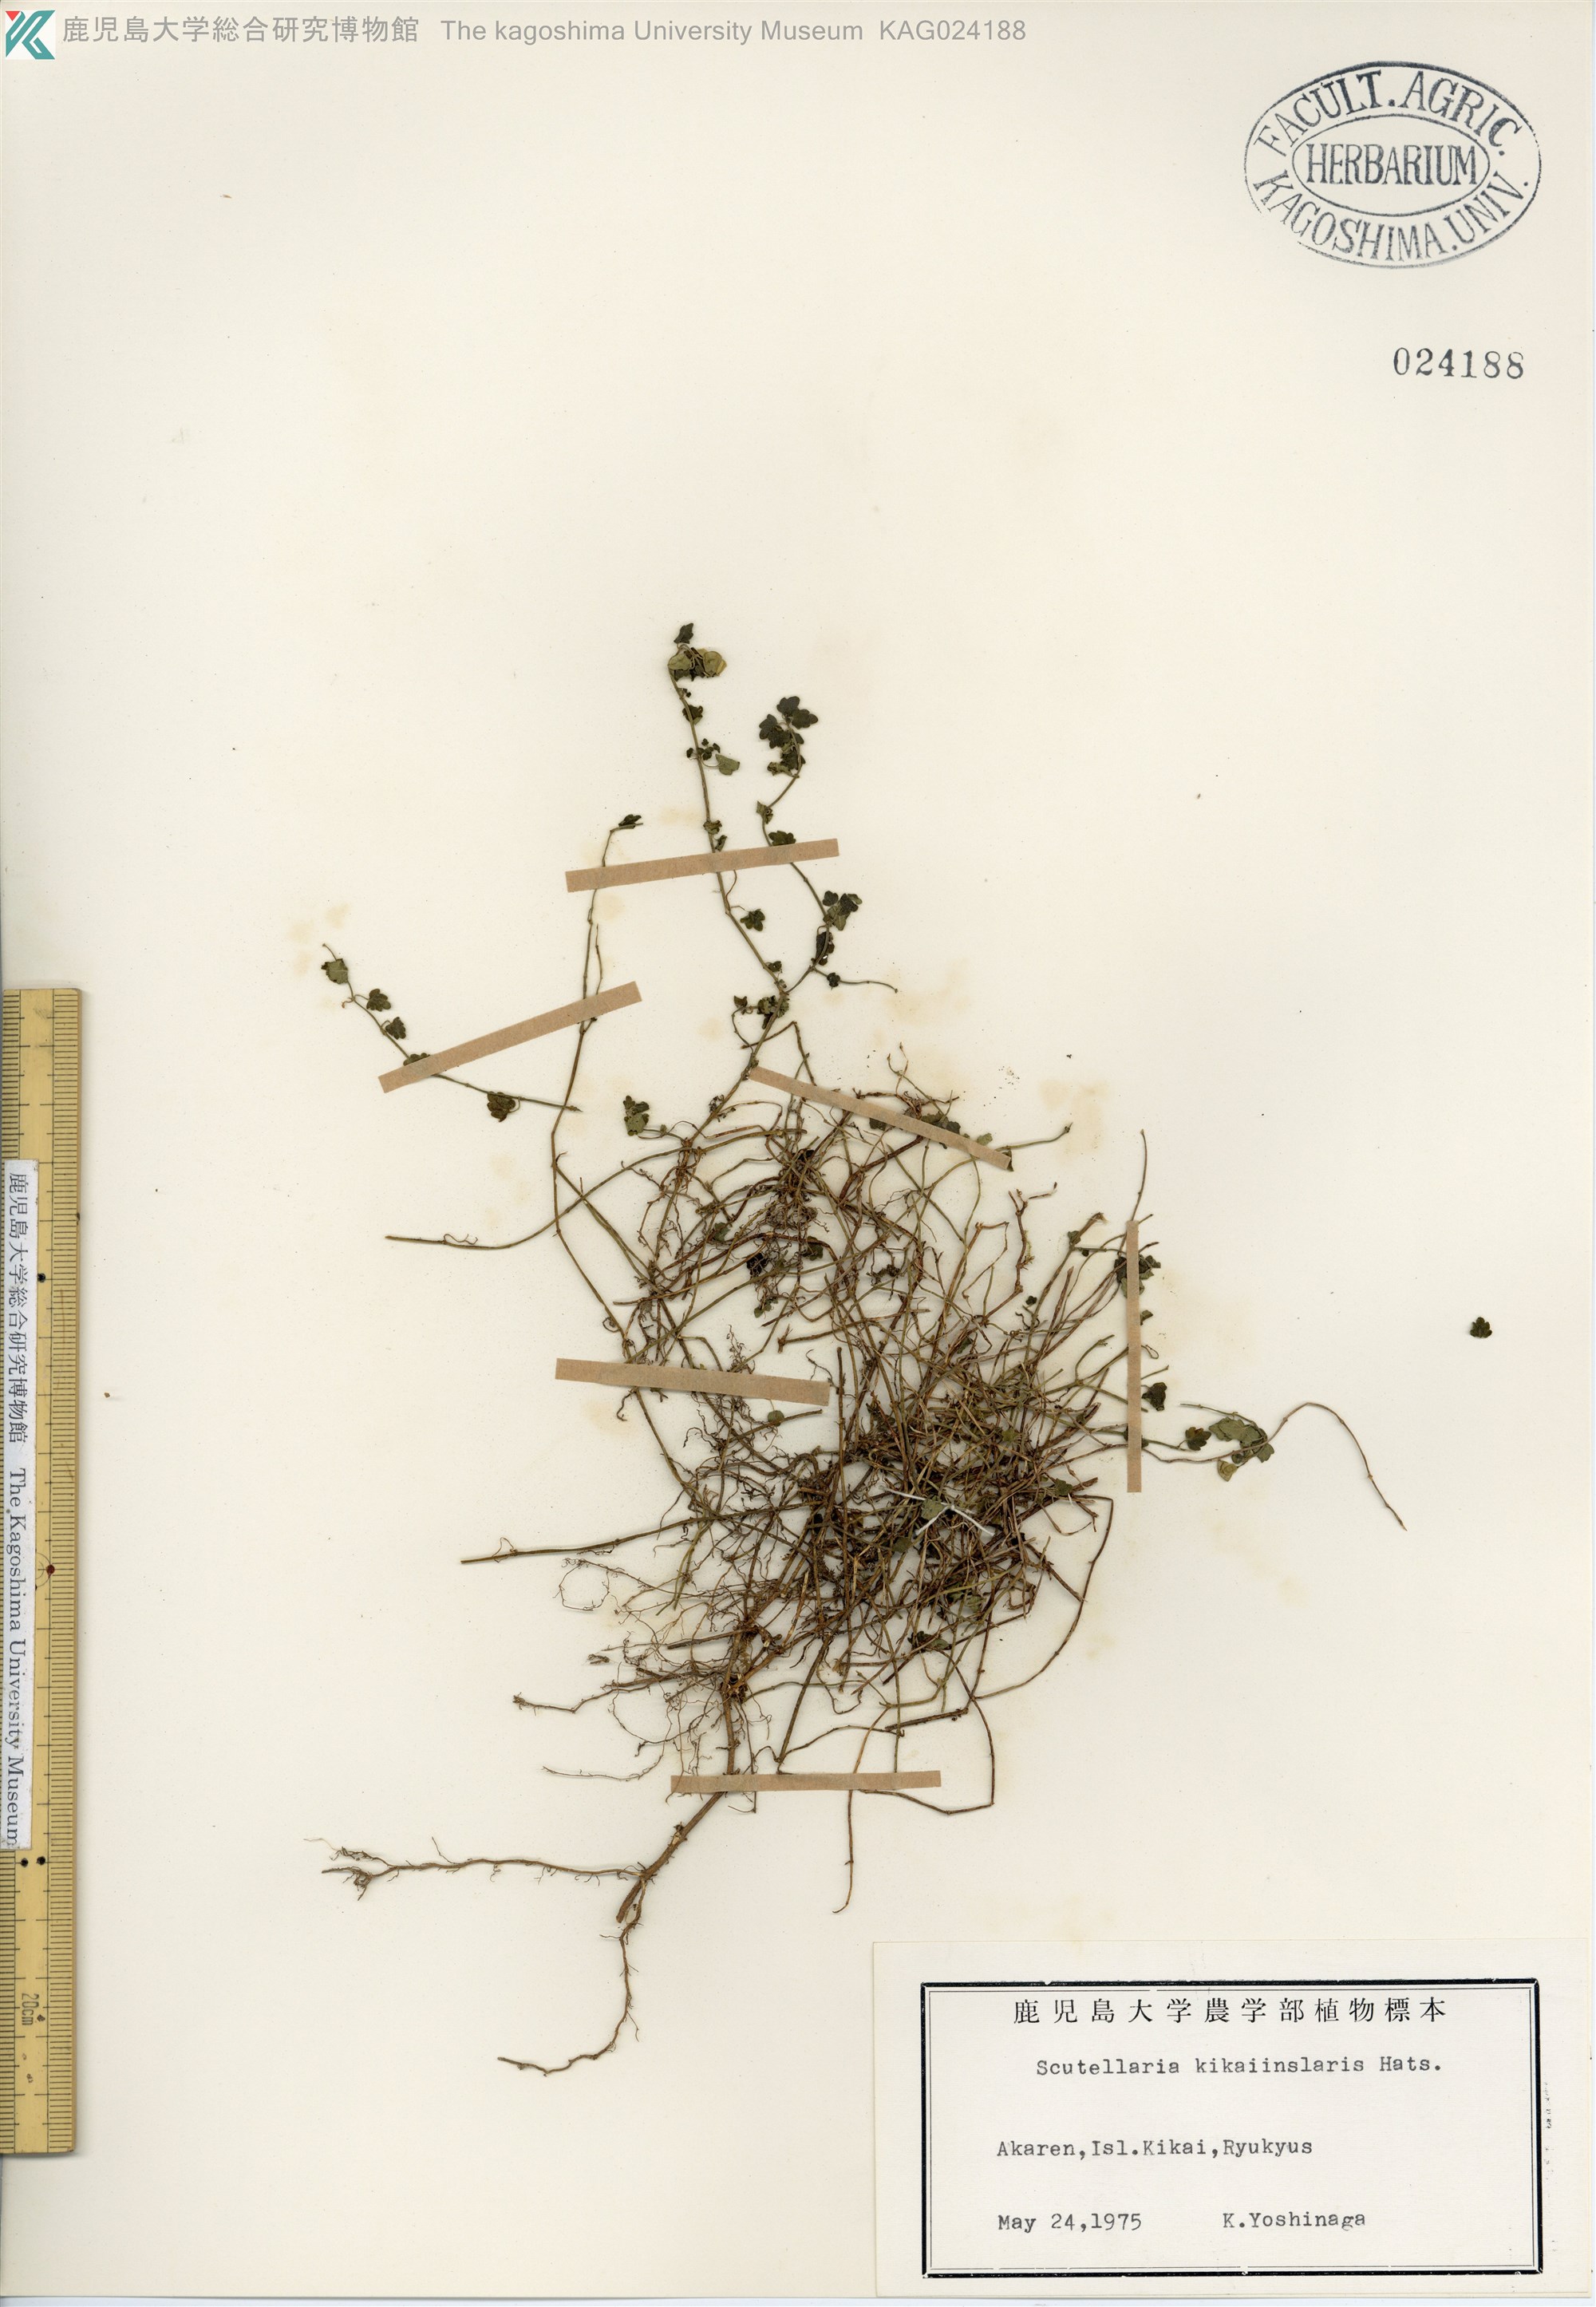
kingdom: Plantae
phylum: Tracheophyta
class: Magnoliopsida
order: Lamiales
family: Lamiaceae
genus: Scutellaria
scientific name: Scutellaria kikai-insularis
